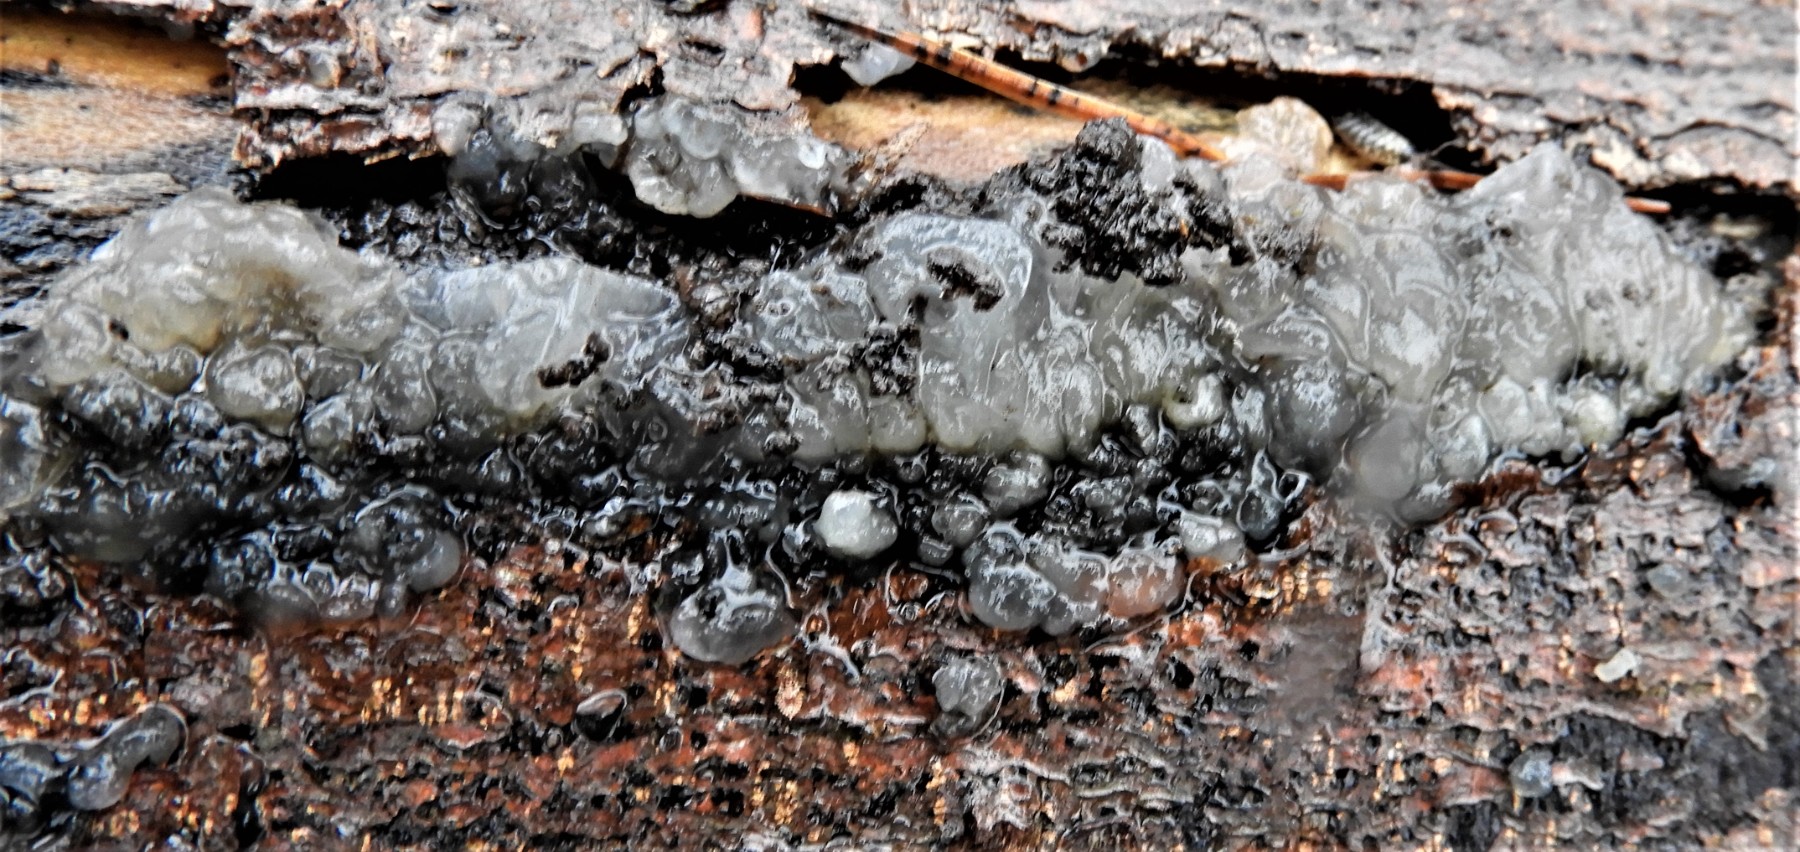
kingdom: Fungi
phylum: Basidiomycota
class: Agaricomycetes
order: Auriculariales
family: Hyaloriaceae
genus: Myxarium
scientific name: Myxarium nucleatum
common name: klar bævretop
